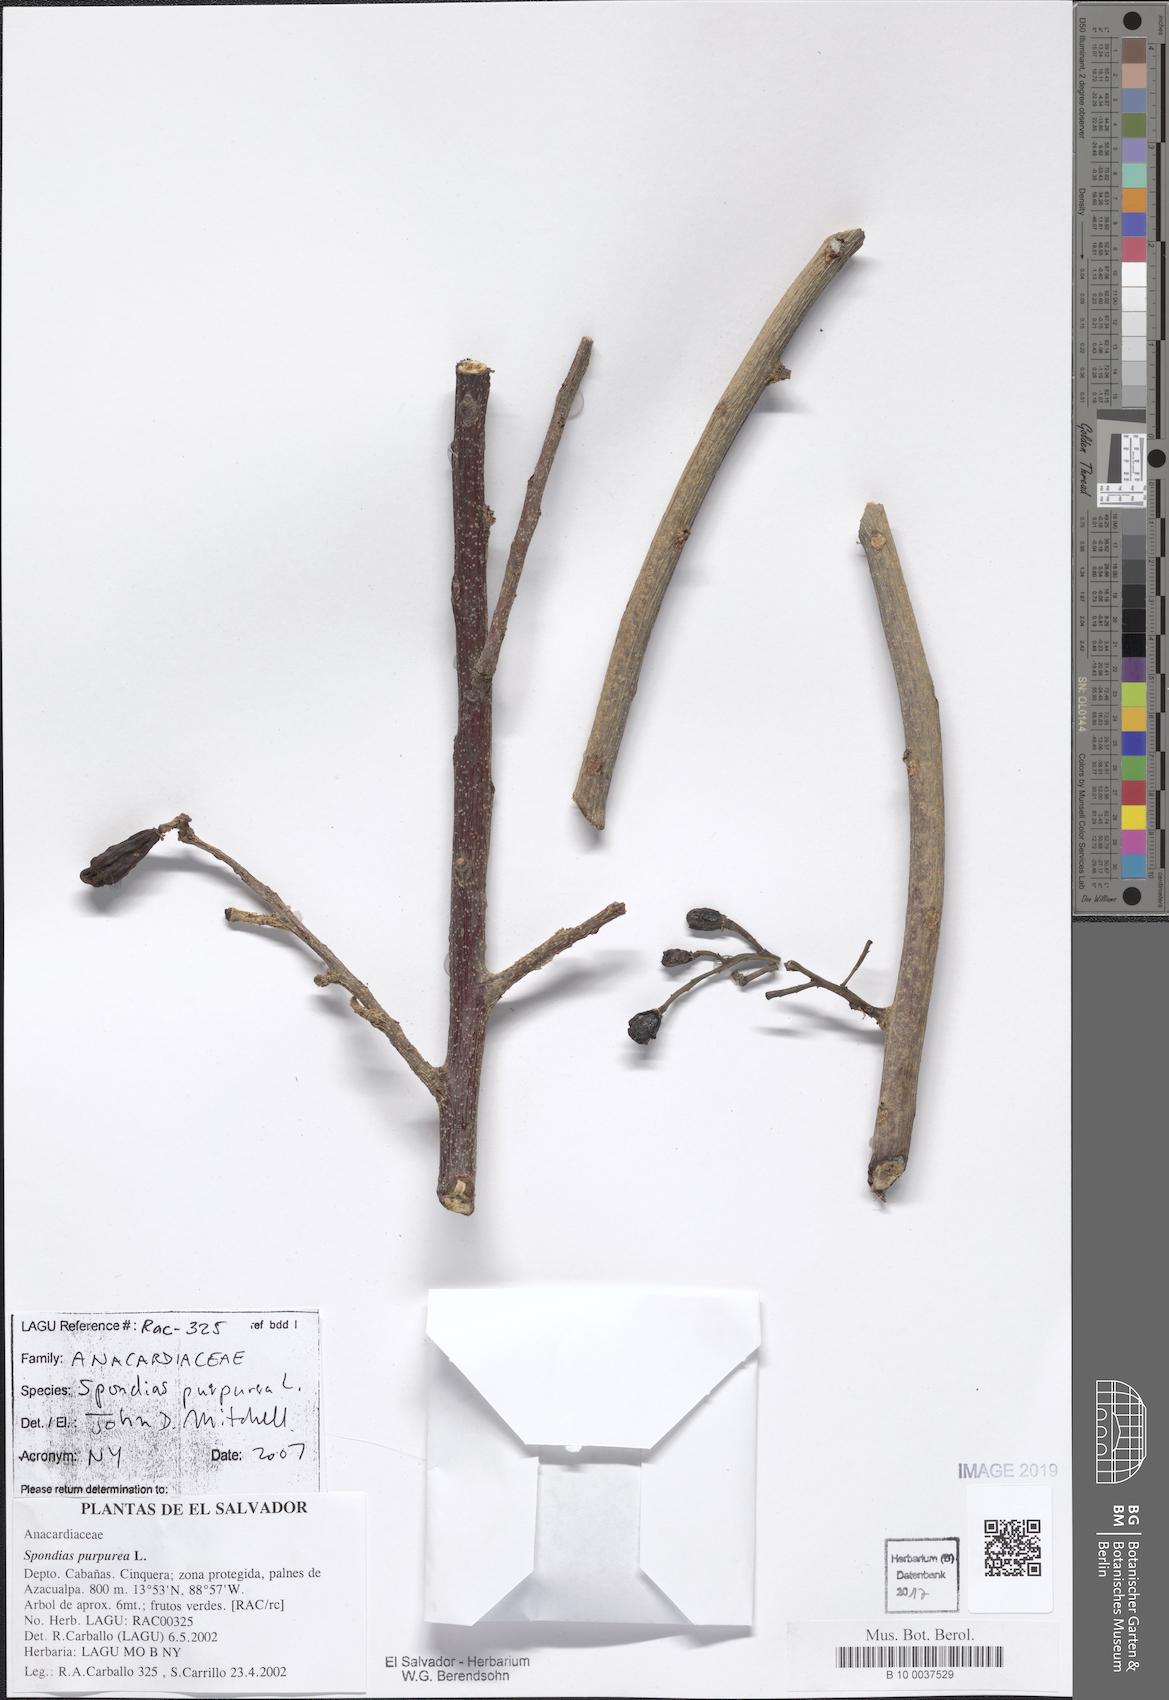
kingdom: Plantae
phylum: Tracheophyta
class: Magnoliopsida
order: Sapindales
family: Anacardiaceae
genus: Spondias
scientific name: Spondias purpurea
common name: Purple mombin
